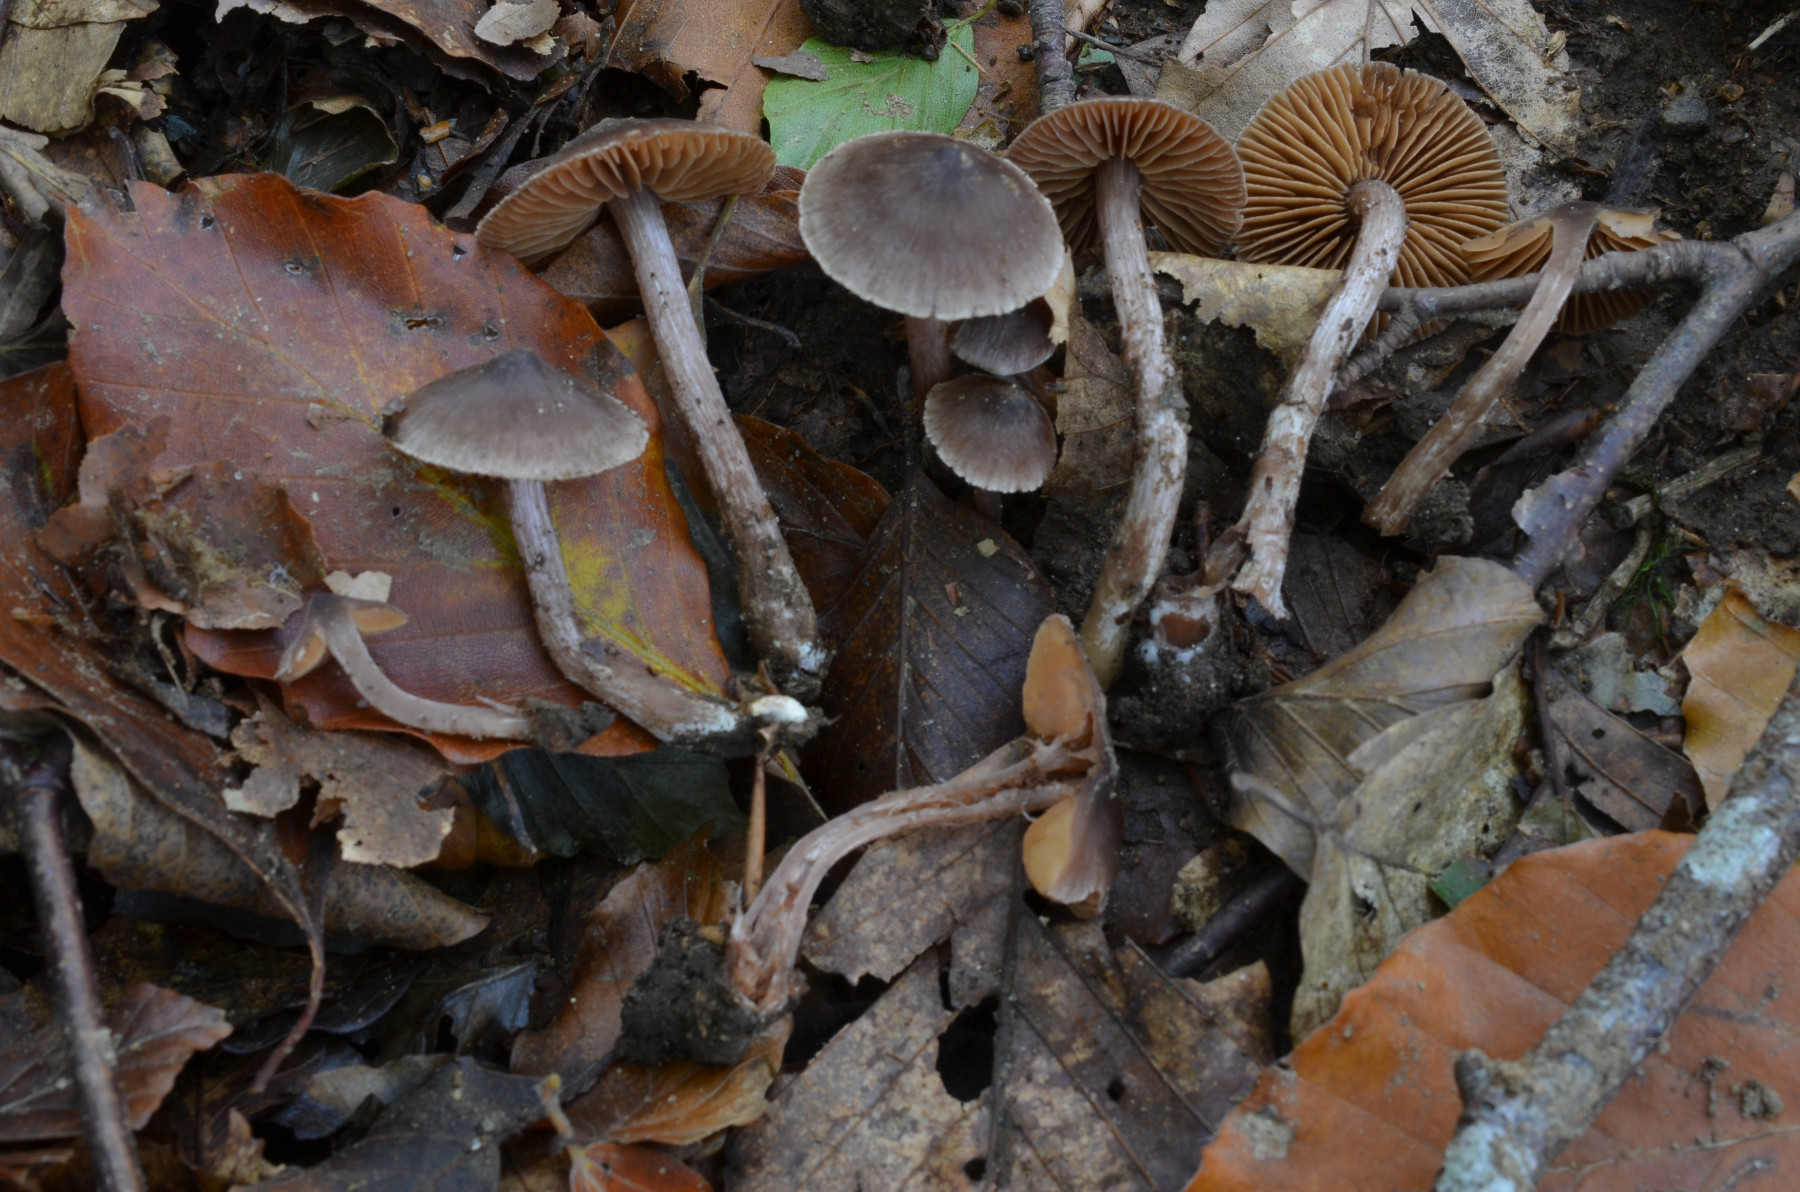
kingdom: Fungi
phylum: Basidiomycota
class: Agaricomycetes
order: Agaricales
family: Cortinariaceae
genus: Cortinarius
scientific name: Cortinarius subobtusobrunneus
